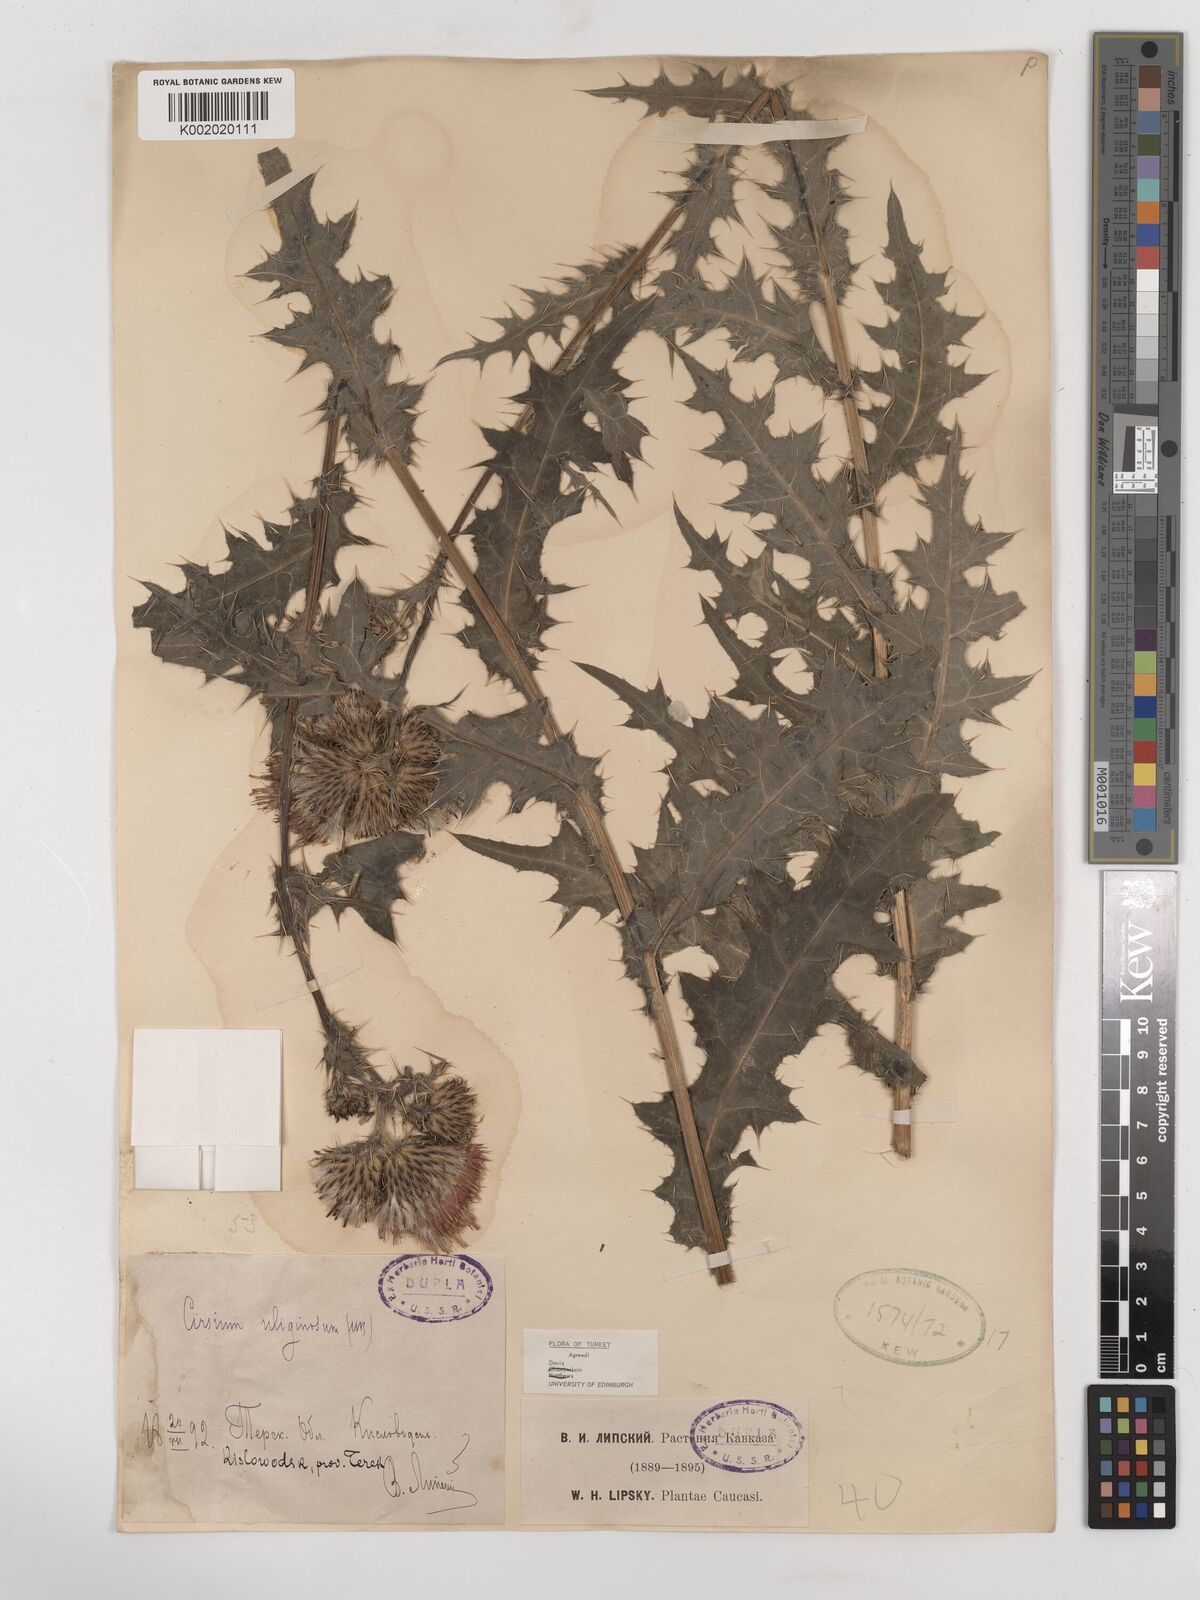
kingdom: Plantae
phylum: Tracheophyta
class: Magnoliopsida
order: Asterales
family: Asteraceae
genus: Cirsium
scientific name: Cirsium uliginosum
